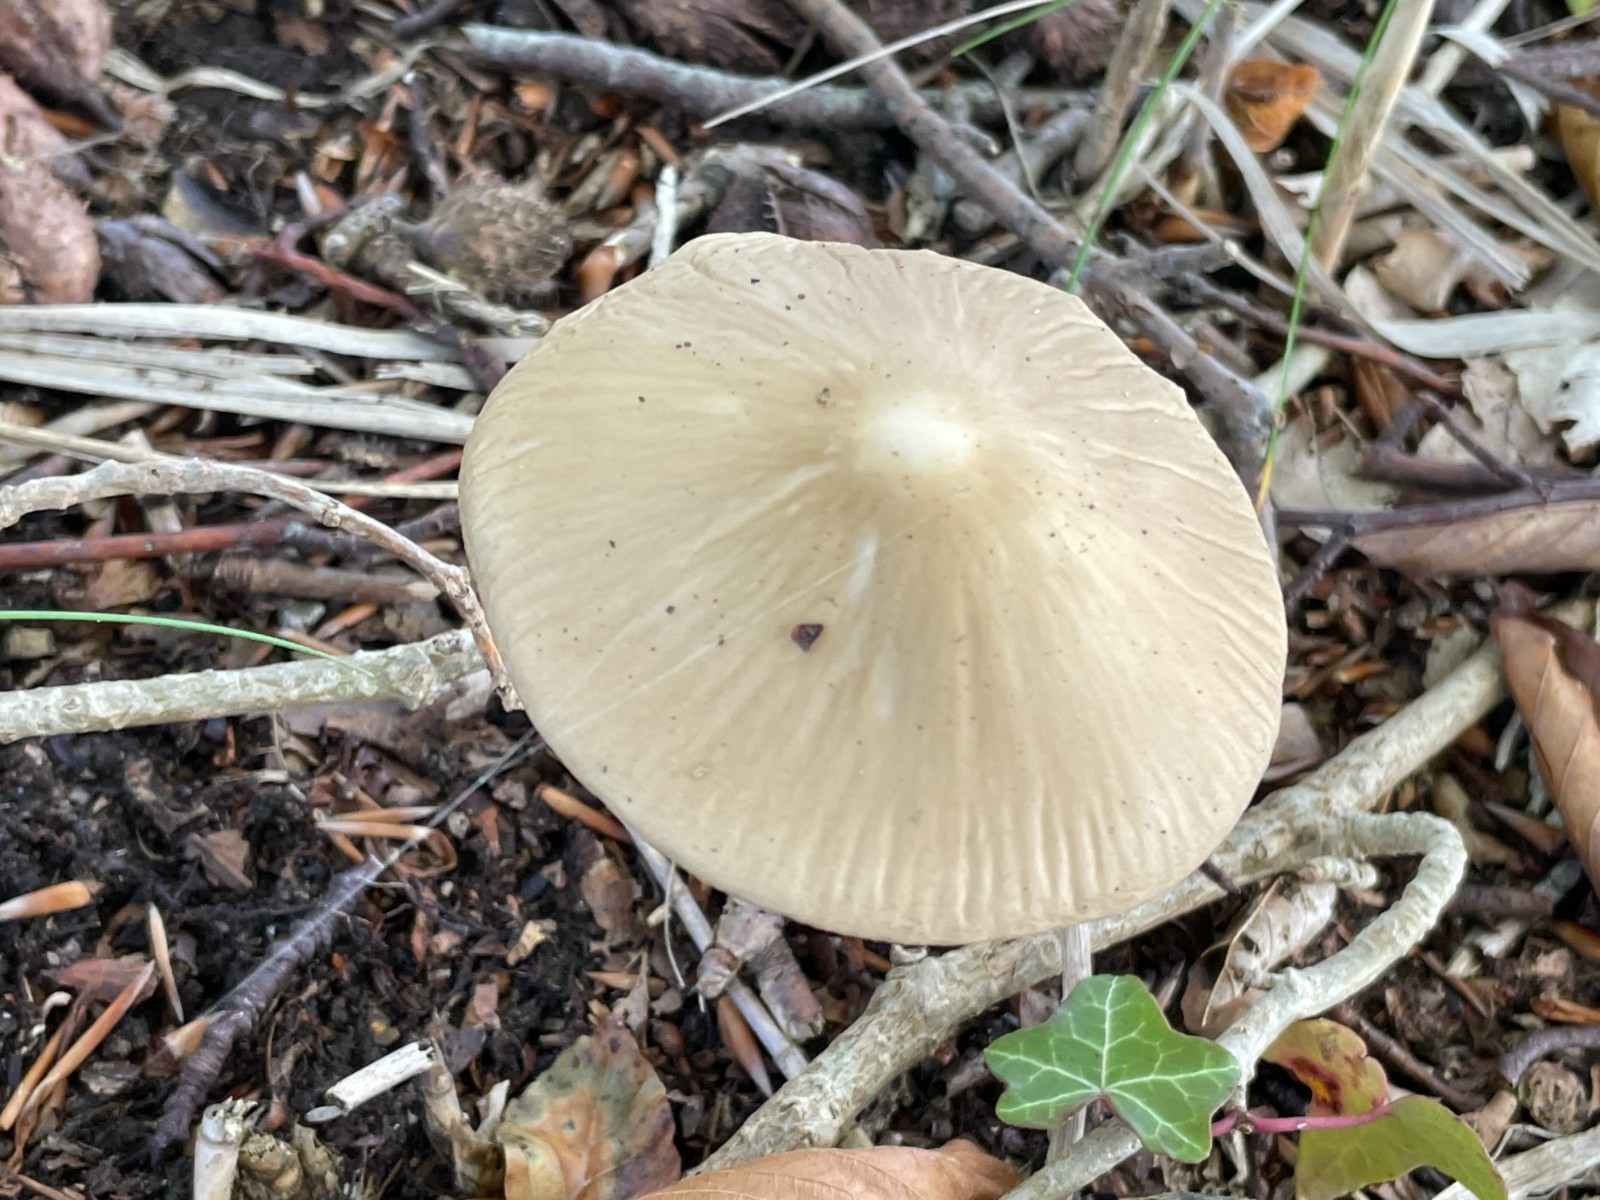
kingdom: Fungi
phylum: Basidiomycota
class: Agaricomycetes
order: Agaricales
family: Physalacriaceae
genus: Hymenopellis
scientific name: Hymenopellis radicata
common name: almindelig pælerodshat
